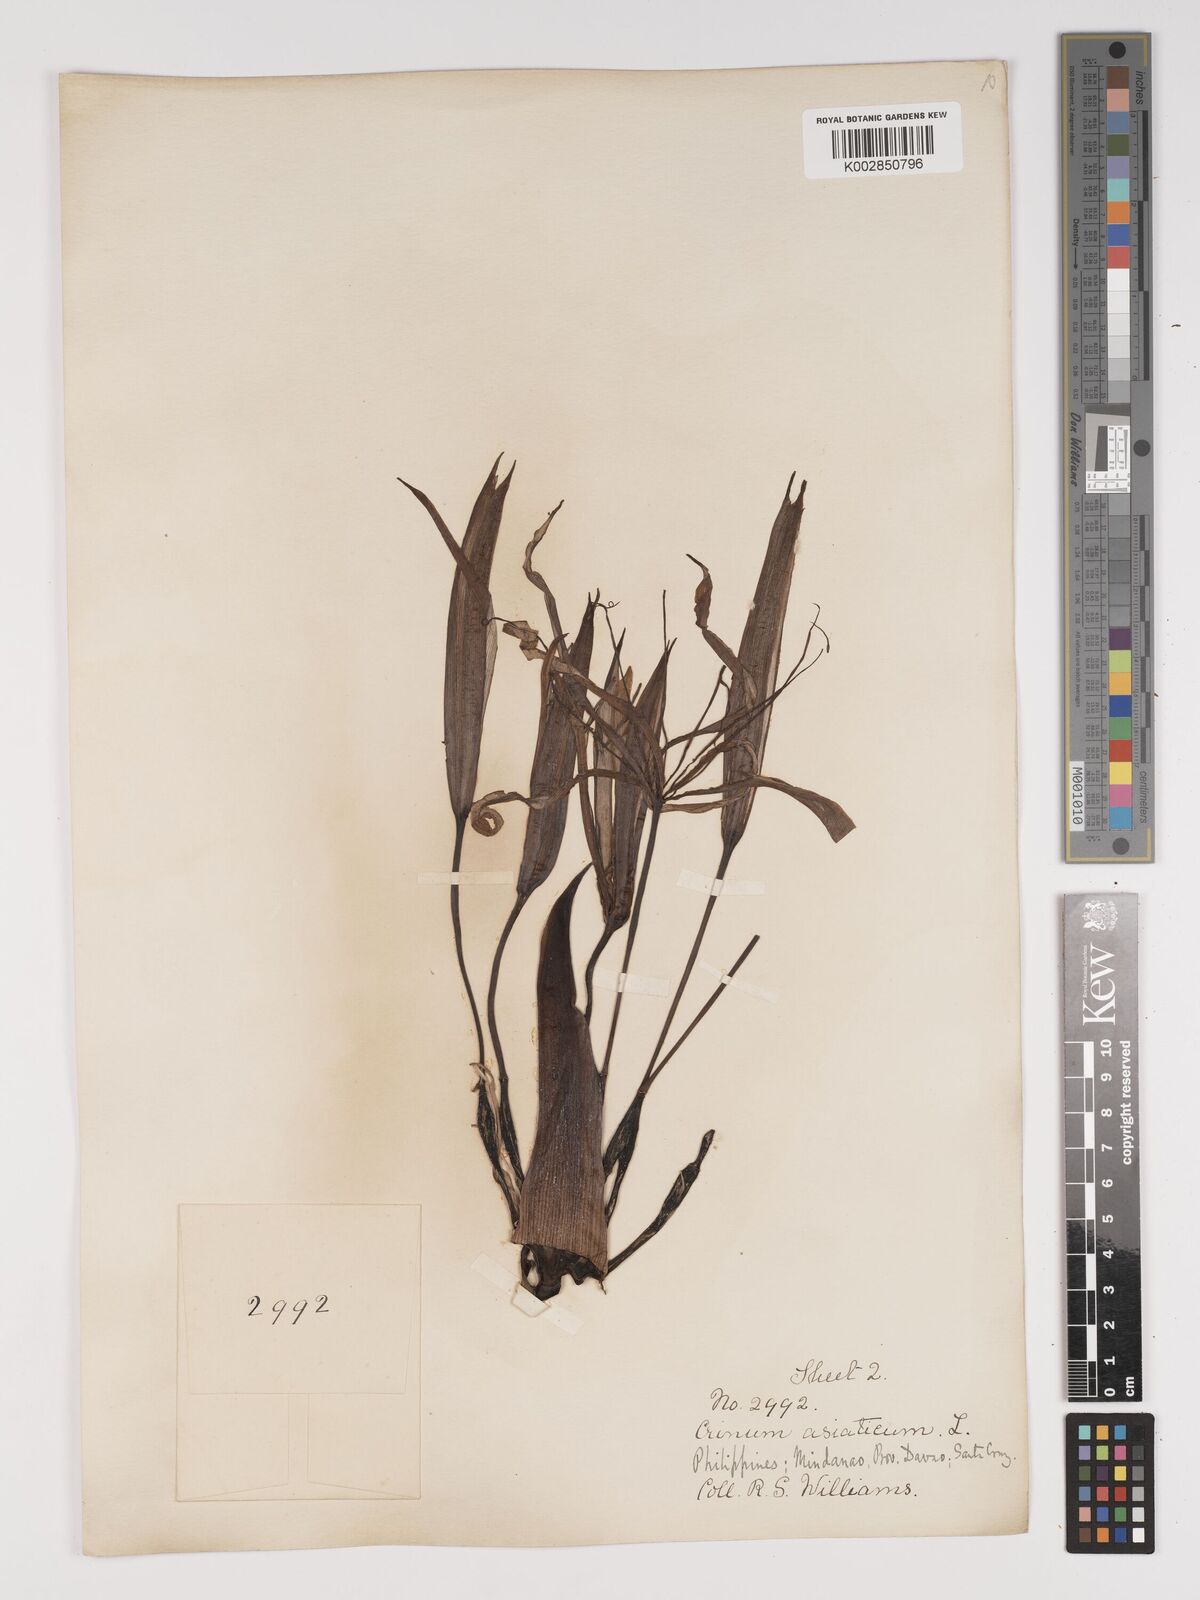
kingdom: Plantae
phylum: Tracheophyta
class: Liliopsida
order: Asparagales
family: Amaryllidaceae
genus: Crinum
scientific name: Crinum asiaticum
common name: Poisonbulb
